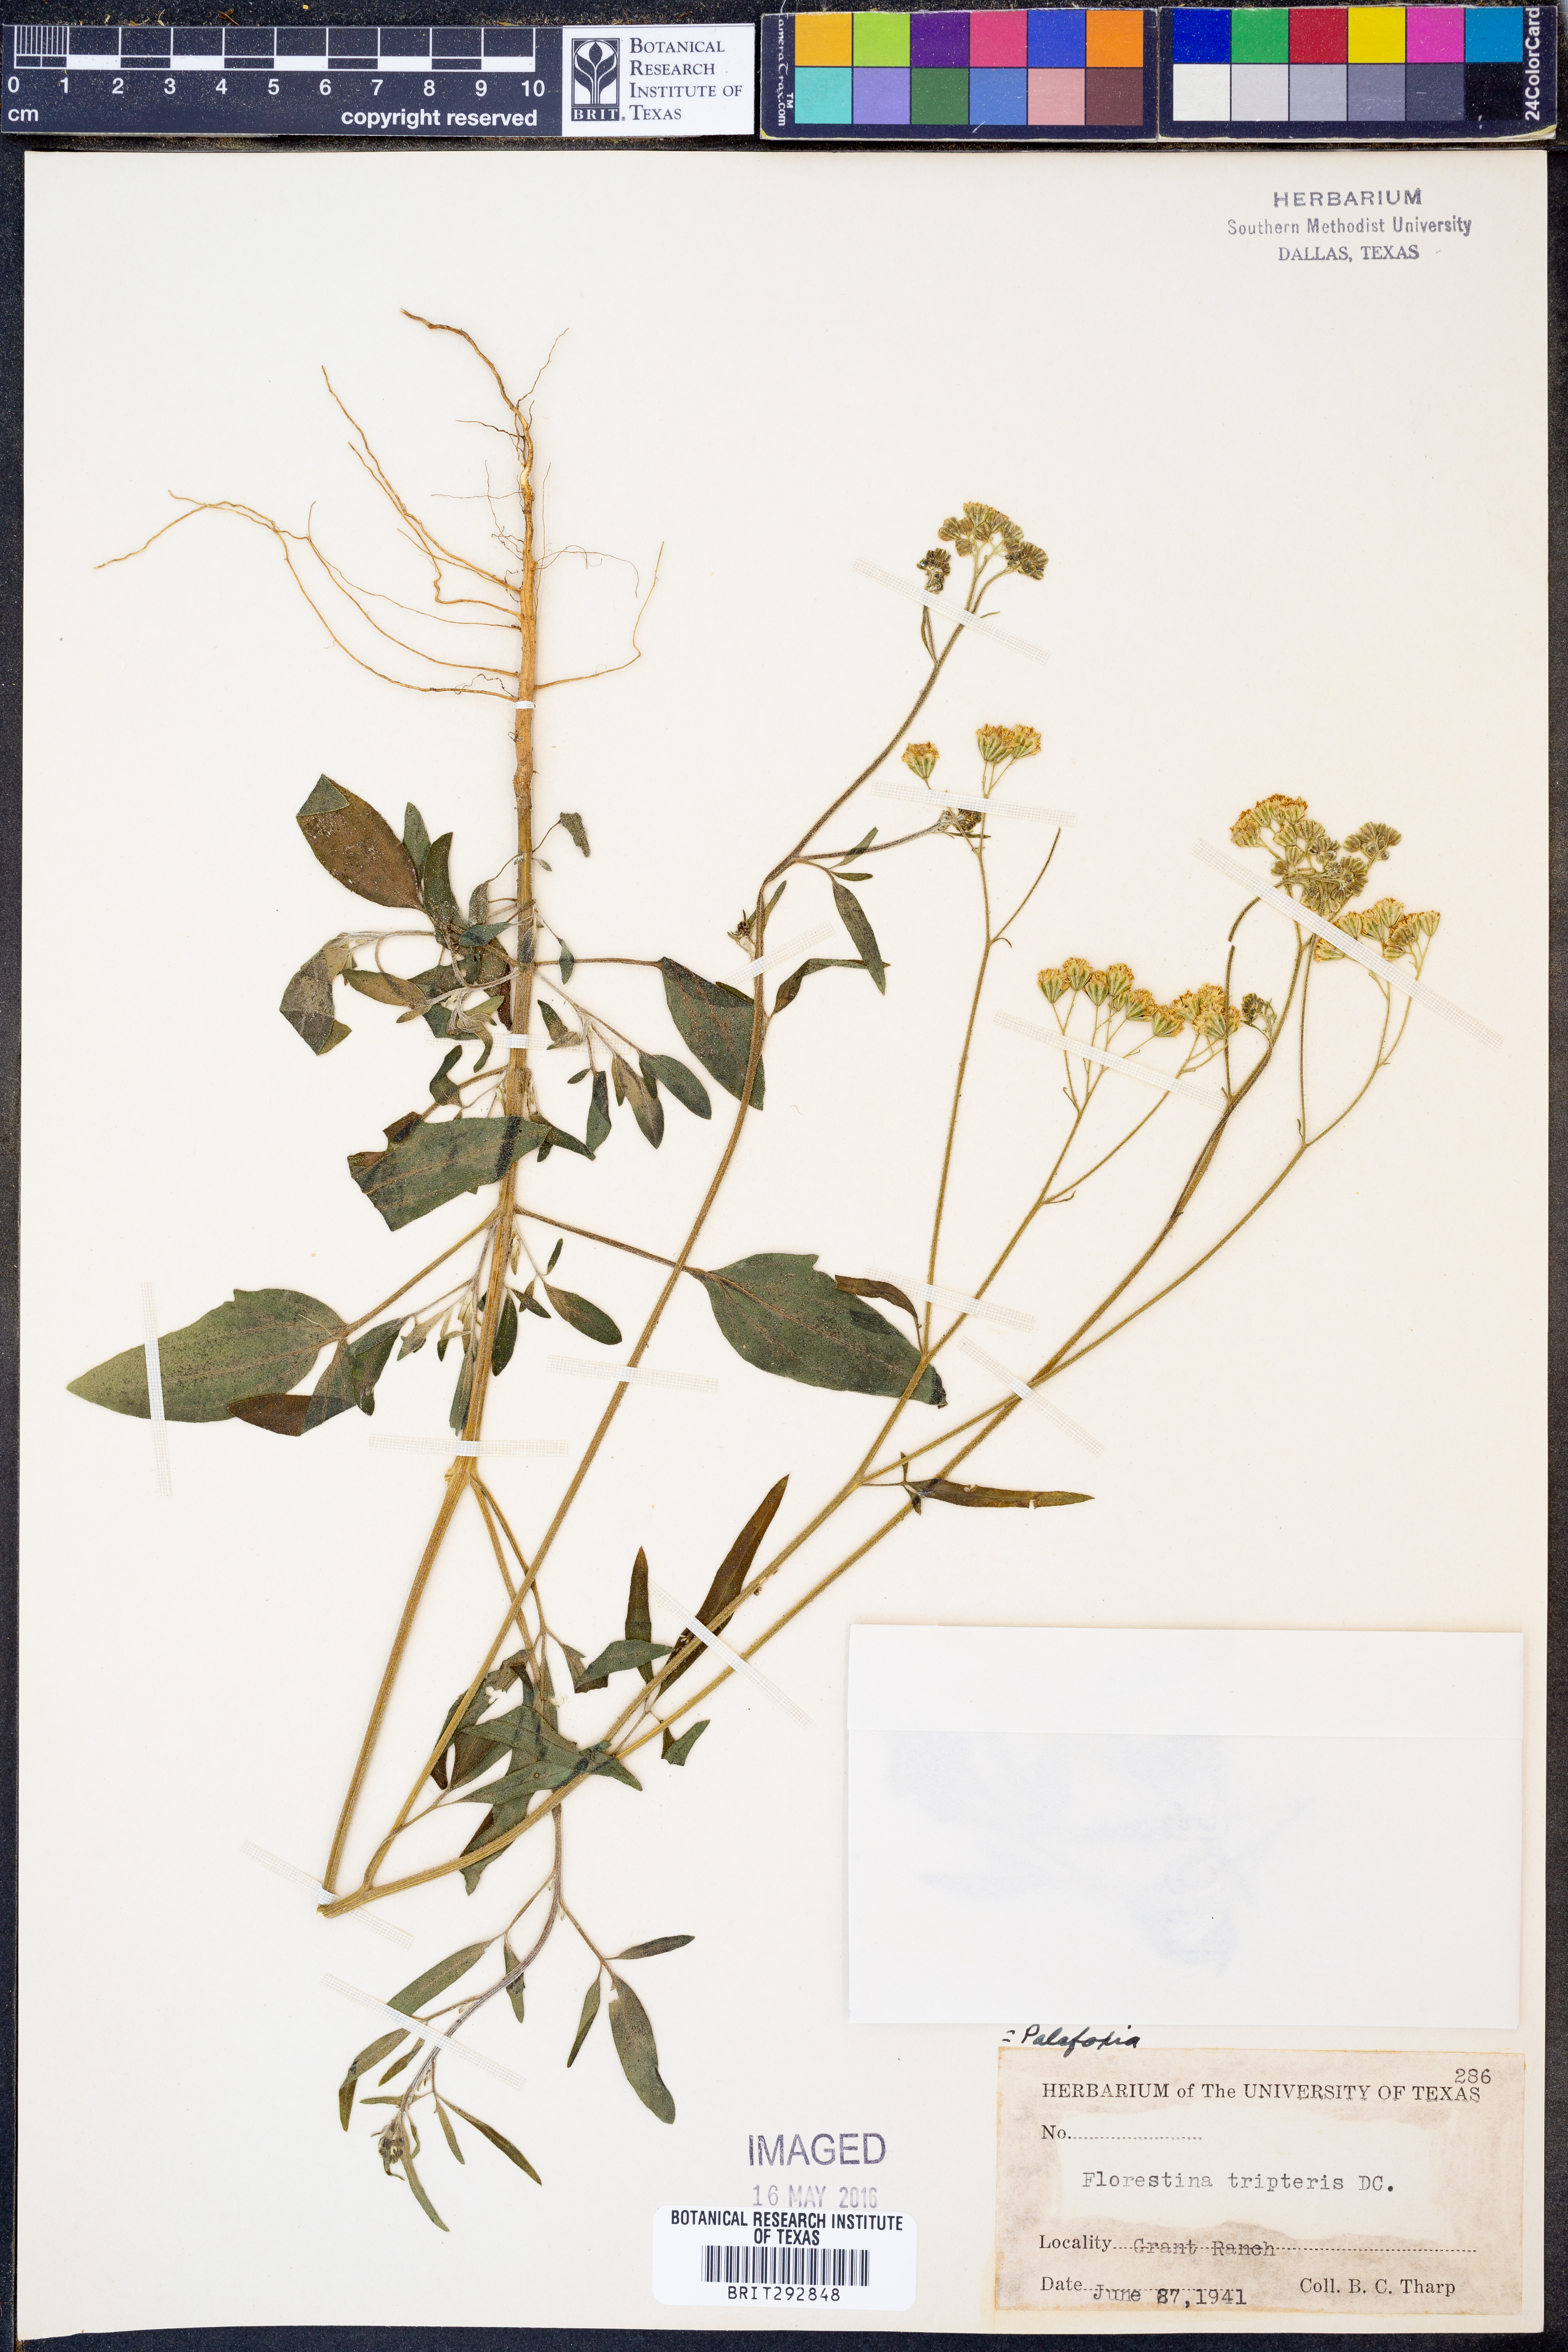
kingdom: Plantae
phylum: Tracheophyta
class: Magnoliopsida
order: Asterales
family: Asteraceae
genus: Florestina
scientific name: Florestina tripteris
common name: Sticky florestina
